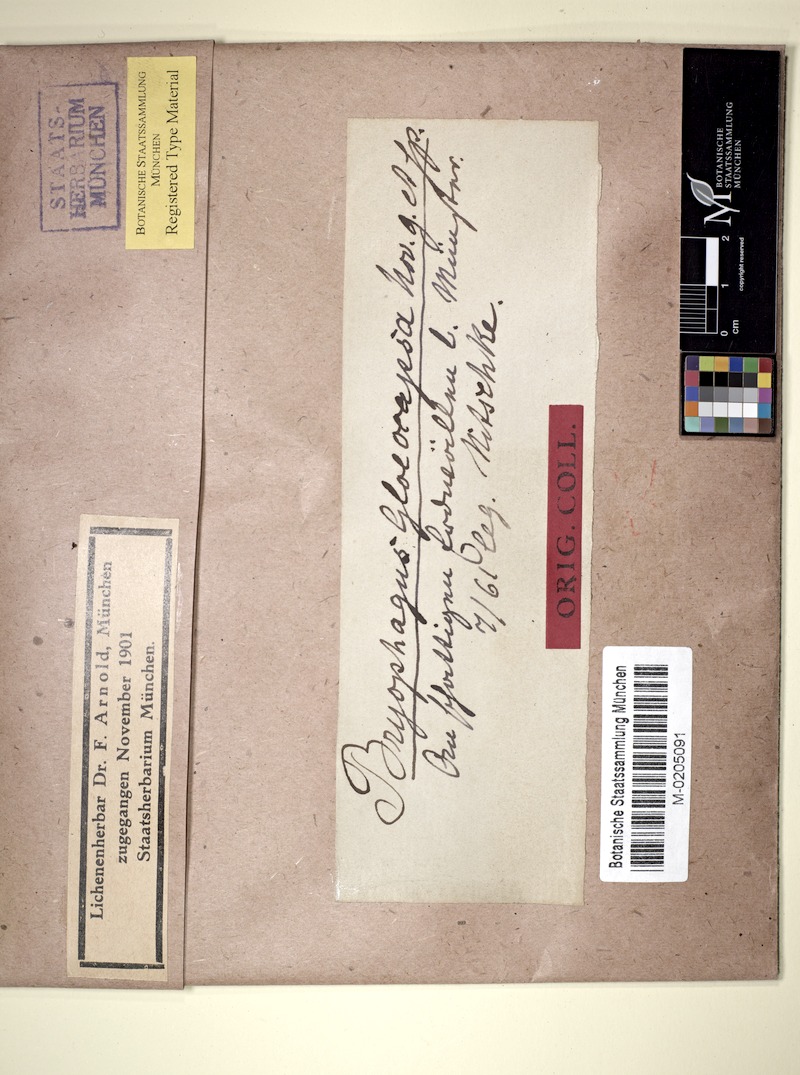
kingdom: Fungi
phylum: Ascomycota
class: Lecanoromycetes
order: Ostropales
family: Stictidaceae
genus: Cryptodiscus
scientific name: Cryptodiscus gloeocapsa
